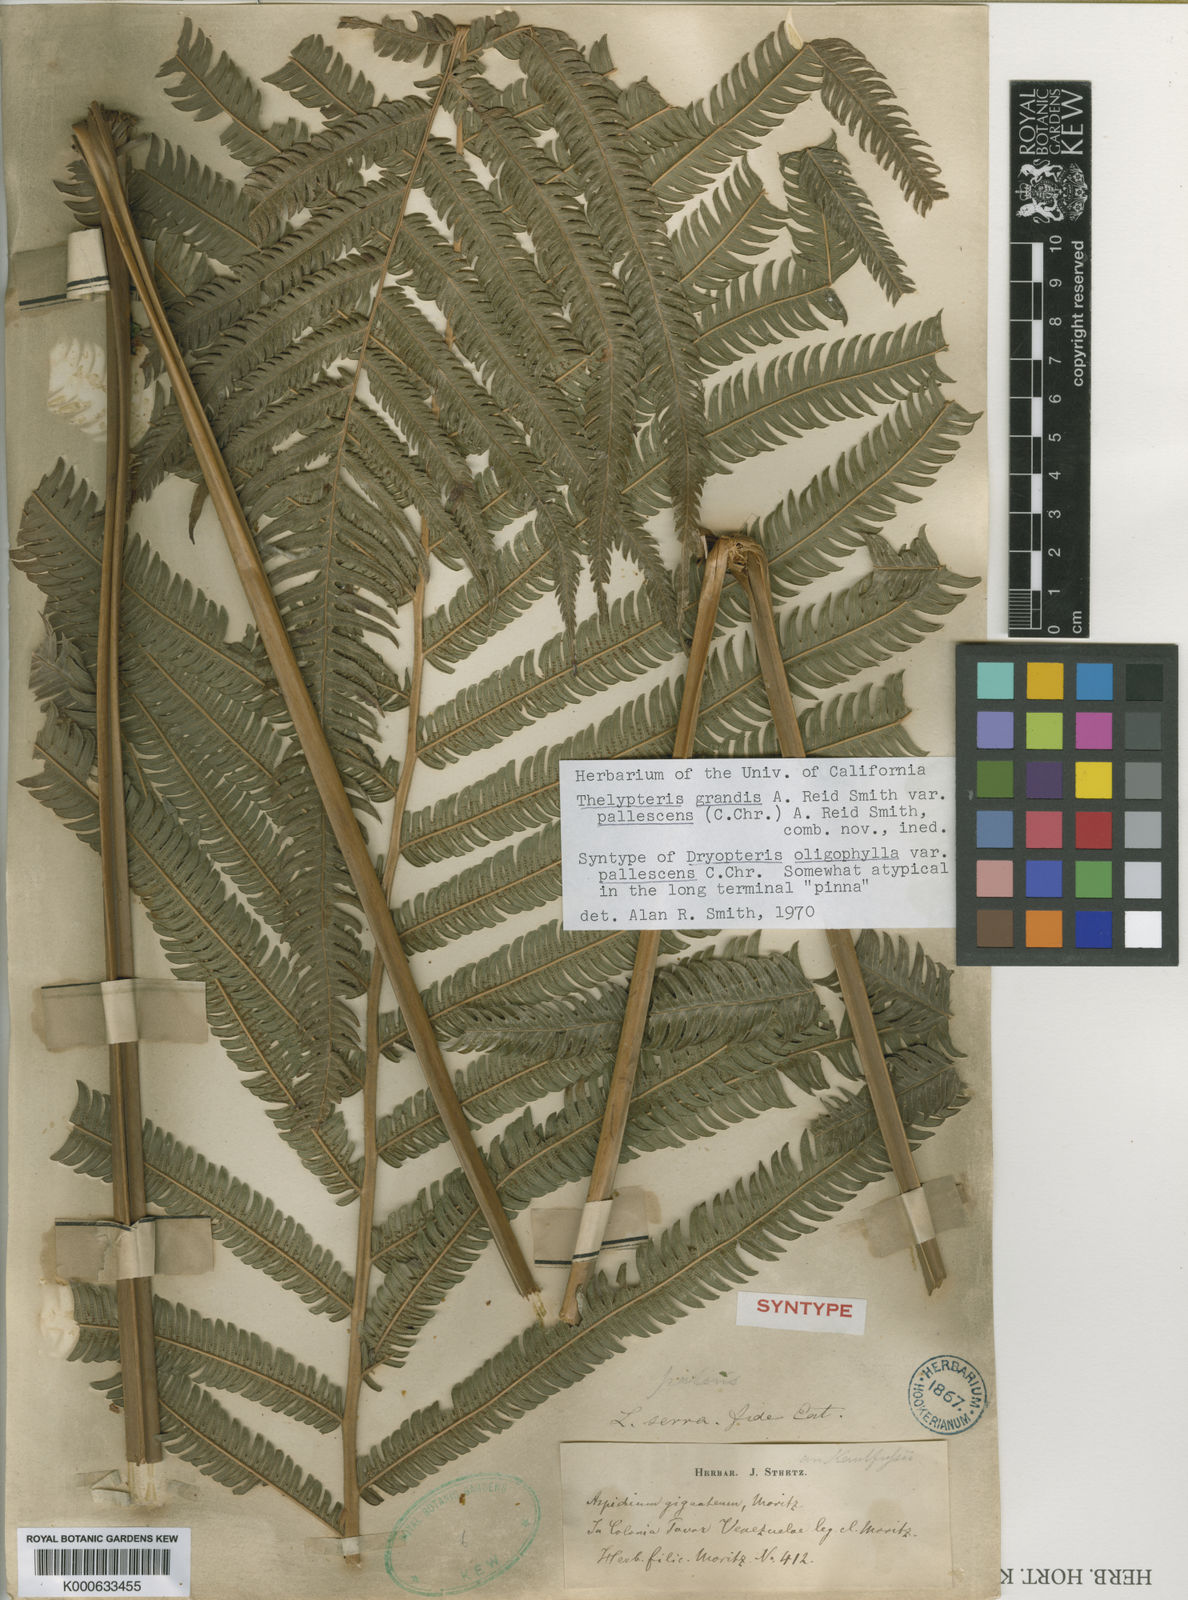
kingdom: Plantae
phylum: Tracheophyta
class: Polypodiopsida
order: Polypodiales
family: Thelypteridaceae
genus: Christella
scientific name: Christella
